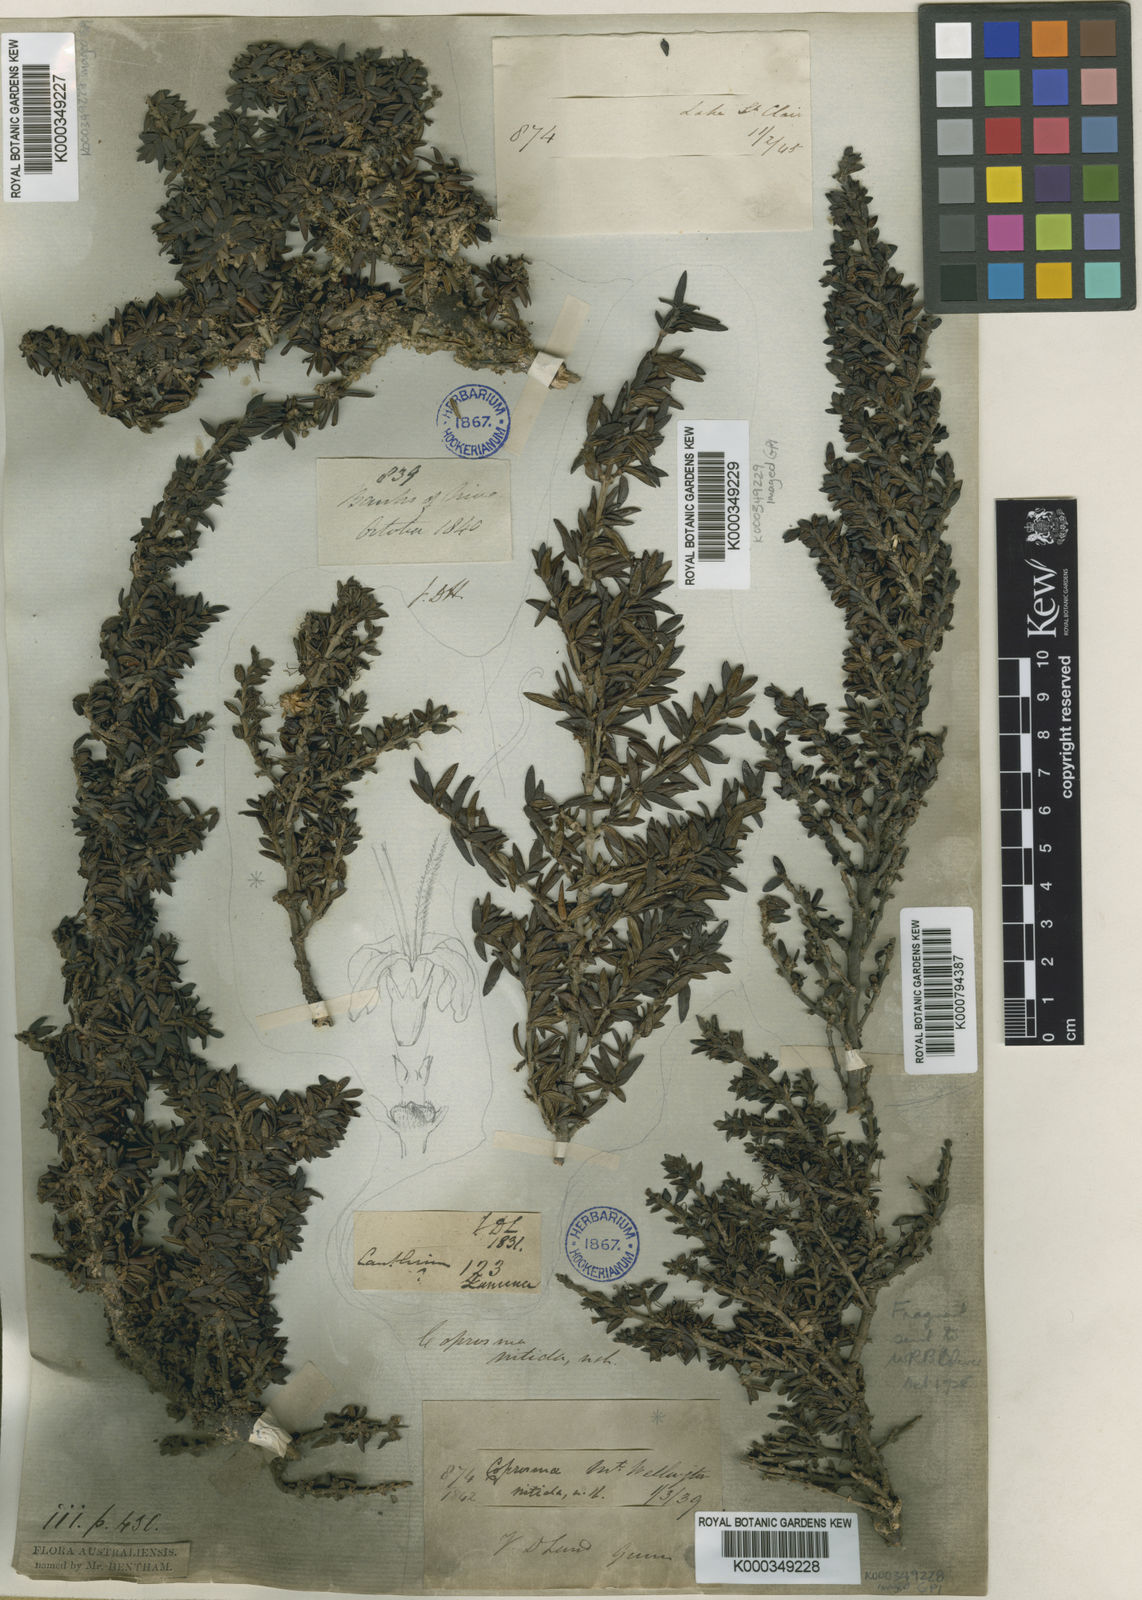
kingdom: Plantae
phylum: Tracheophyta
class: Magnoliopsida
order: Gentianales
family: Rubiaceae
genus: Coprosma
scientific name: Coprosma nitida
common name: Shining coprosma
